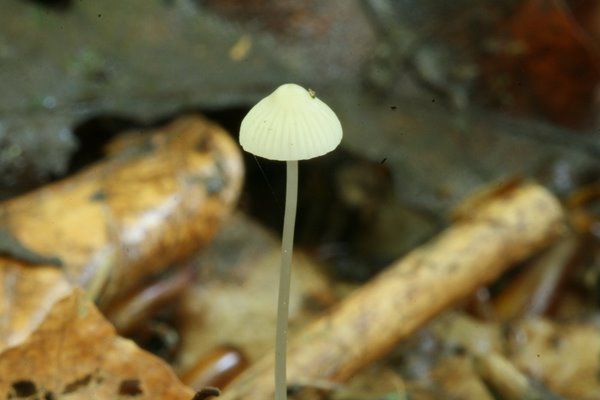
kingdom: Fungi
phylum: Basidiomycota
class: Agaricomycetes
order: Agaricales
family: Mycenaceae
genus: Mycena
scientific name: Mycena vitilis
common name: blankstokket huesvamp
